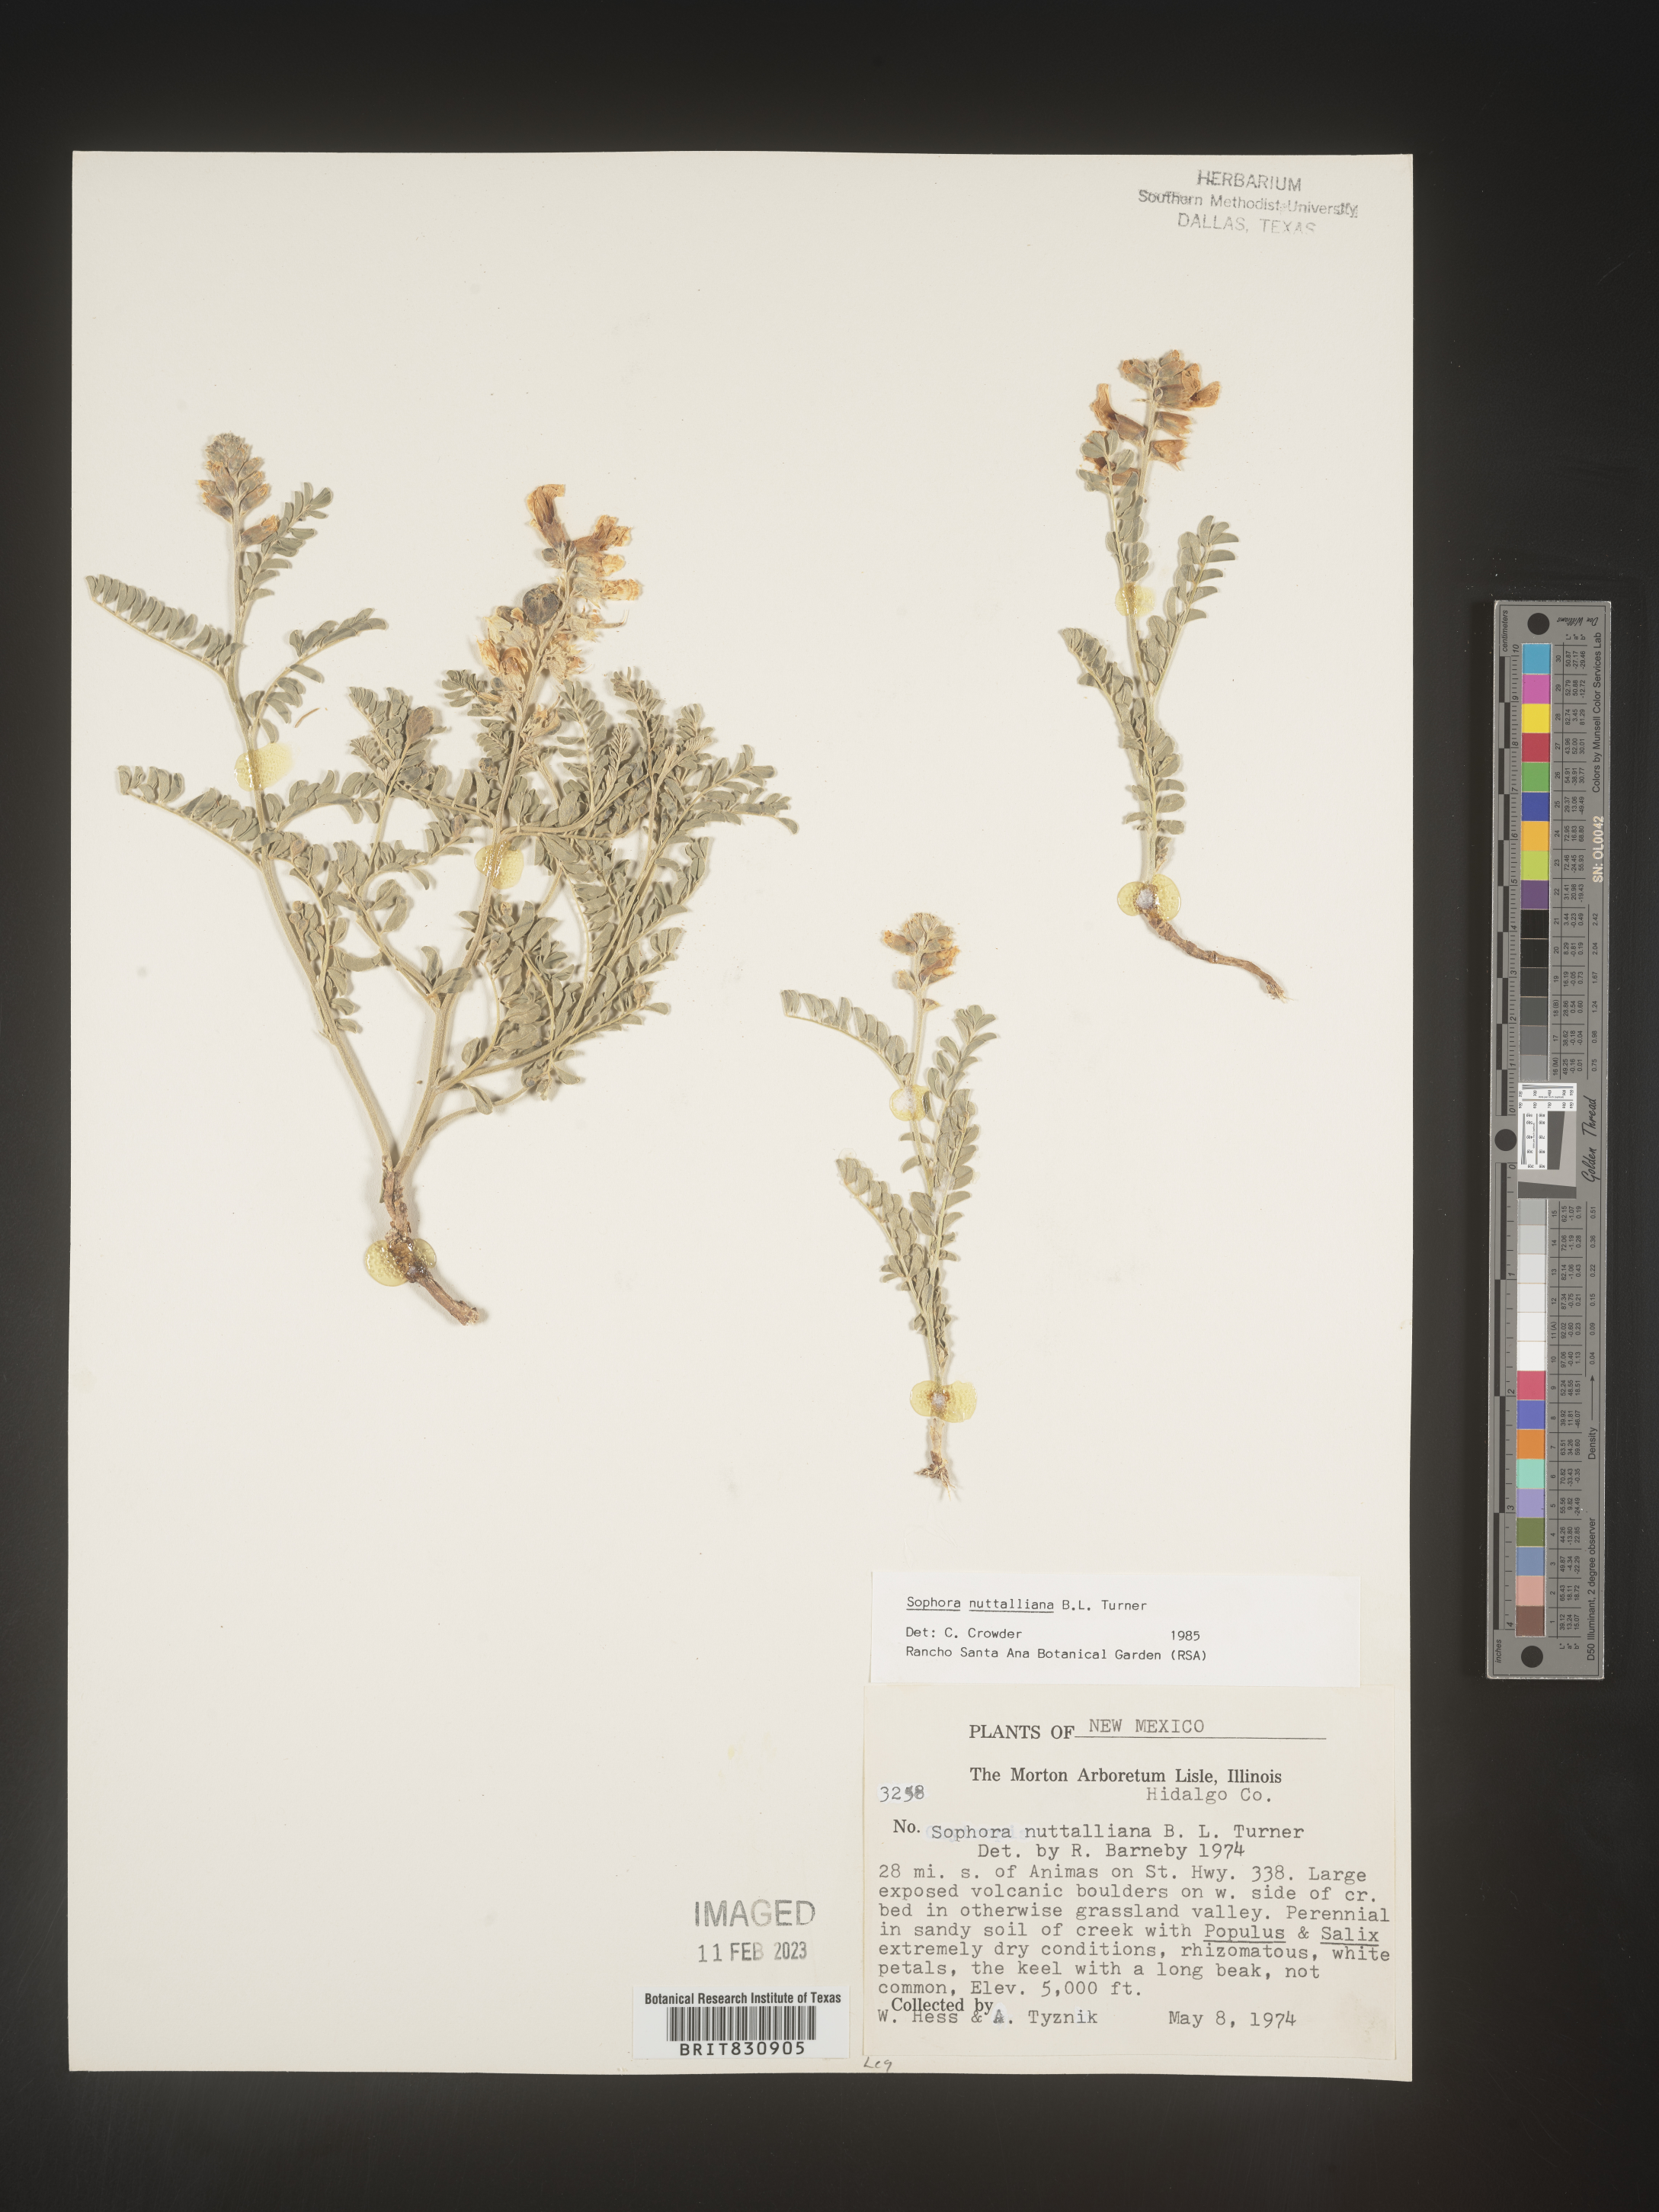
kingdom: Plantae
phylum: Tracheophyta
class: Magnoliopsida
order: Fabales
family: Fabaceae
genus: Sophora
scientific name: Sophora nuttalliana
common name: Silky sophora
